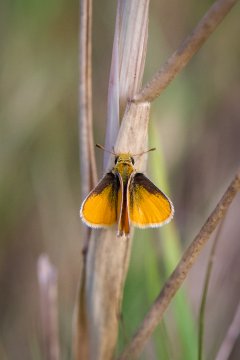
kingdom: Animalia
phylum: Arthropoda
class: Insecta
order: Lepidoptera
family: Hesperiidae
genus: Copaeodes
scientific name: Copaeodes minima
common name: Southern Skipperling
